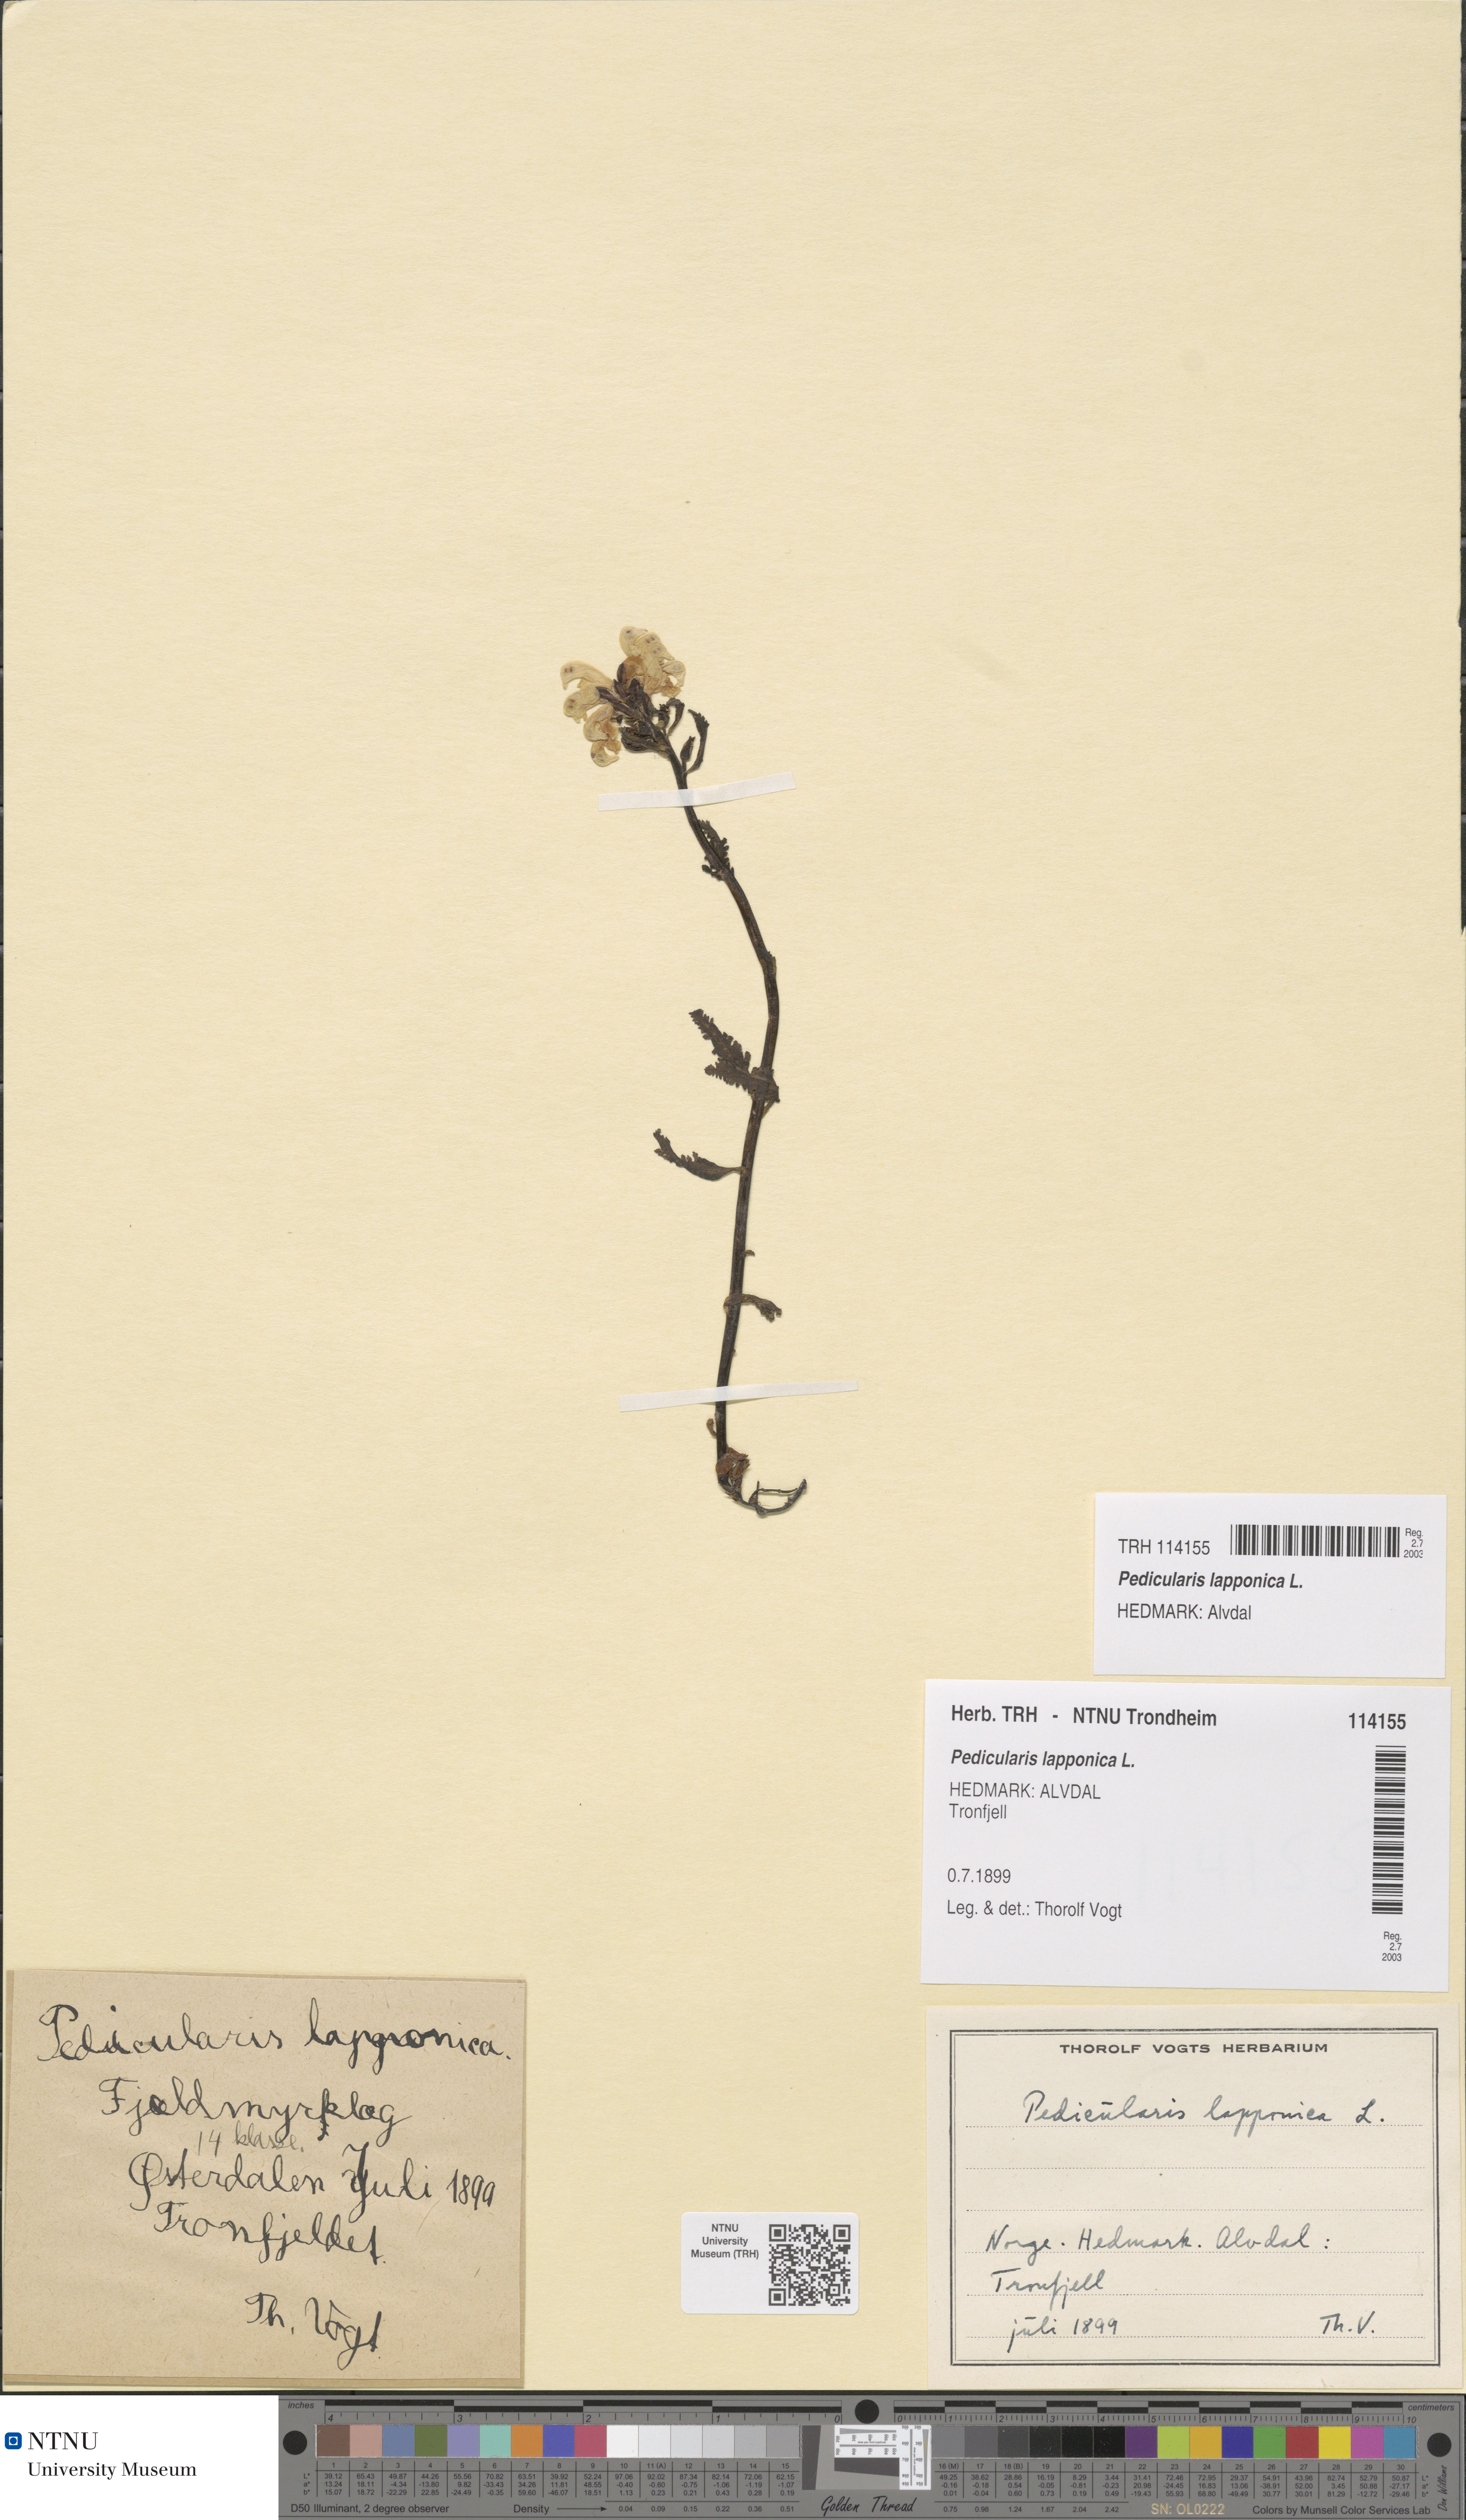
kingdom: Plantae
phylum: Tracheophyta
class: Magnoliopsida
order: Lamiales
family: Orobanchaceae
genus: Pedicularis
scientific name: Pedicularis lapponica
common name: Lapland lousewort
